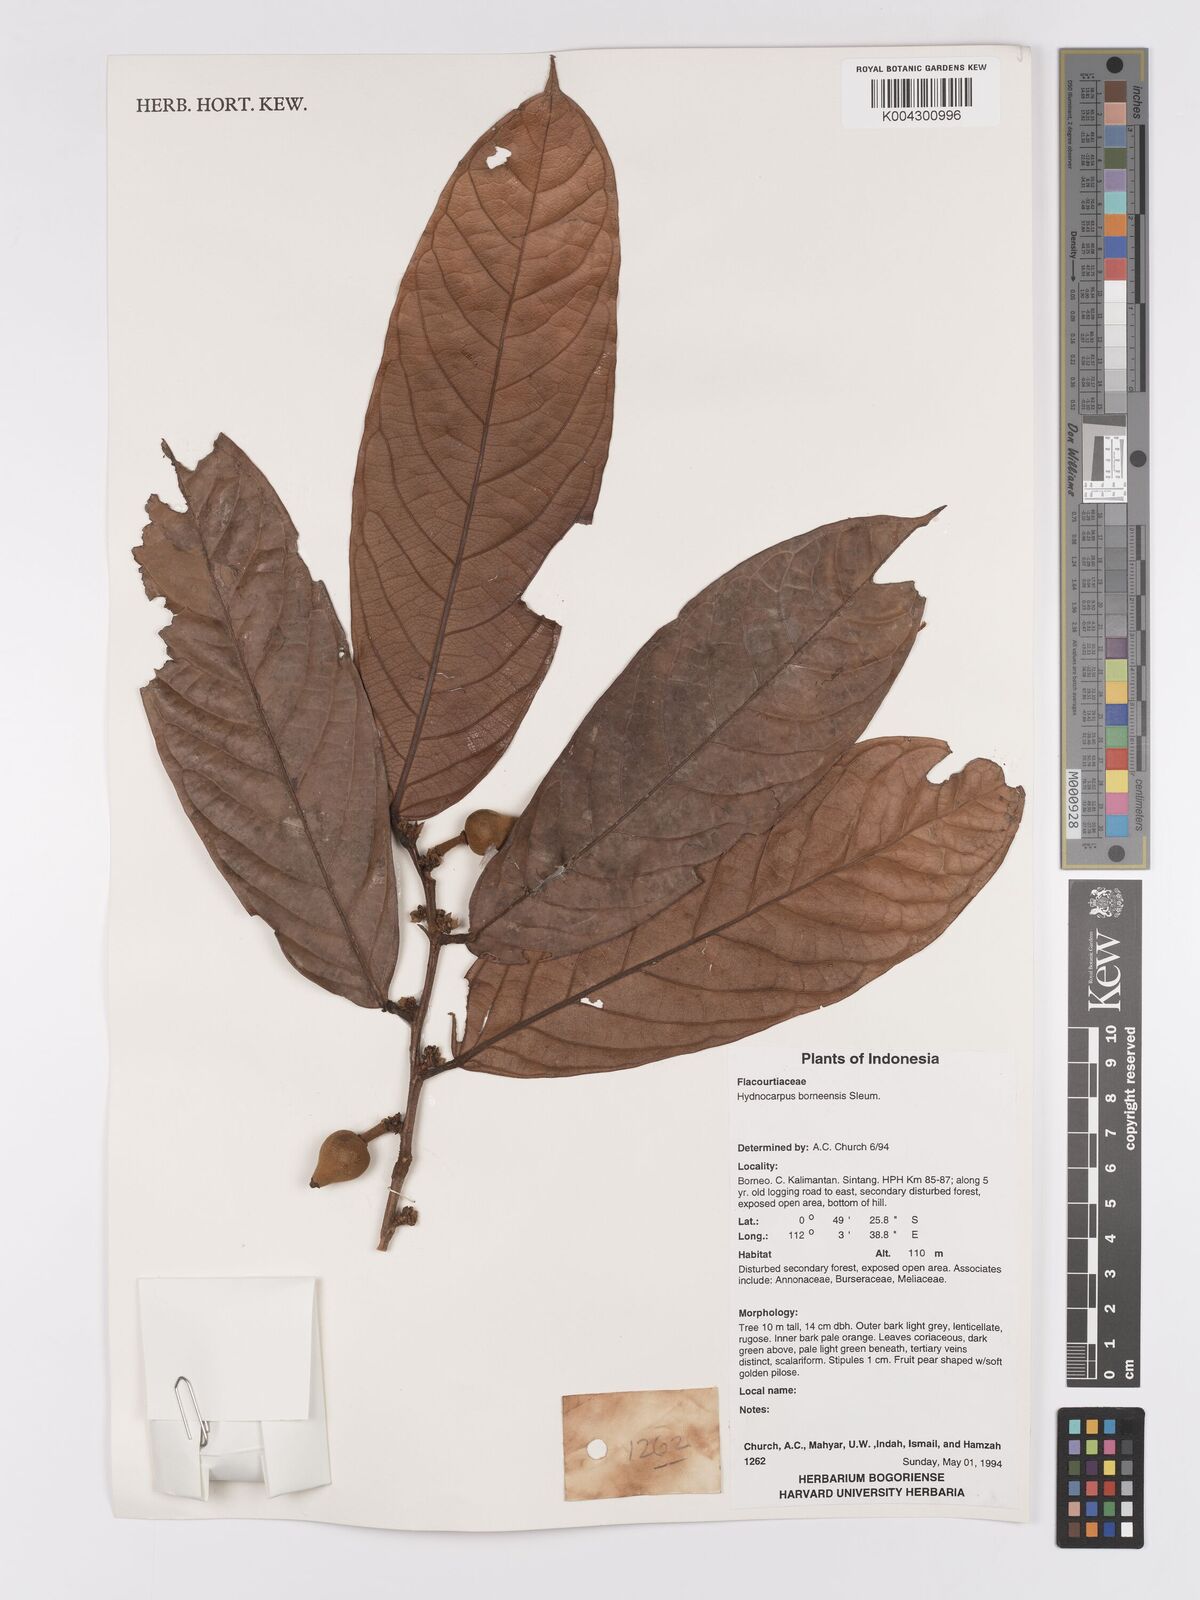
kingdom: Plantae
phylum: Tracheophyta
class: Magnoliopsida
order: Malpighiales
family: Achariaceae
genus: Hydnocarpus
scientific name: Hydnocarpus borneensis
